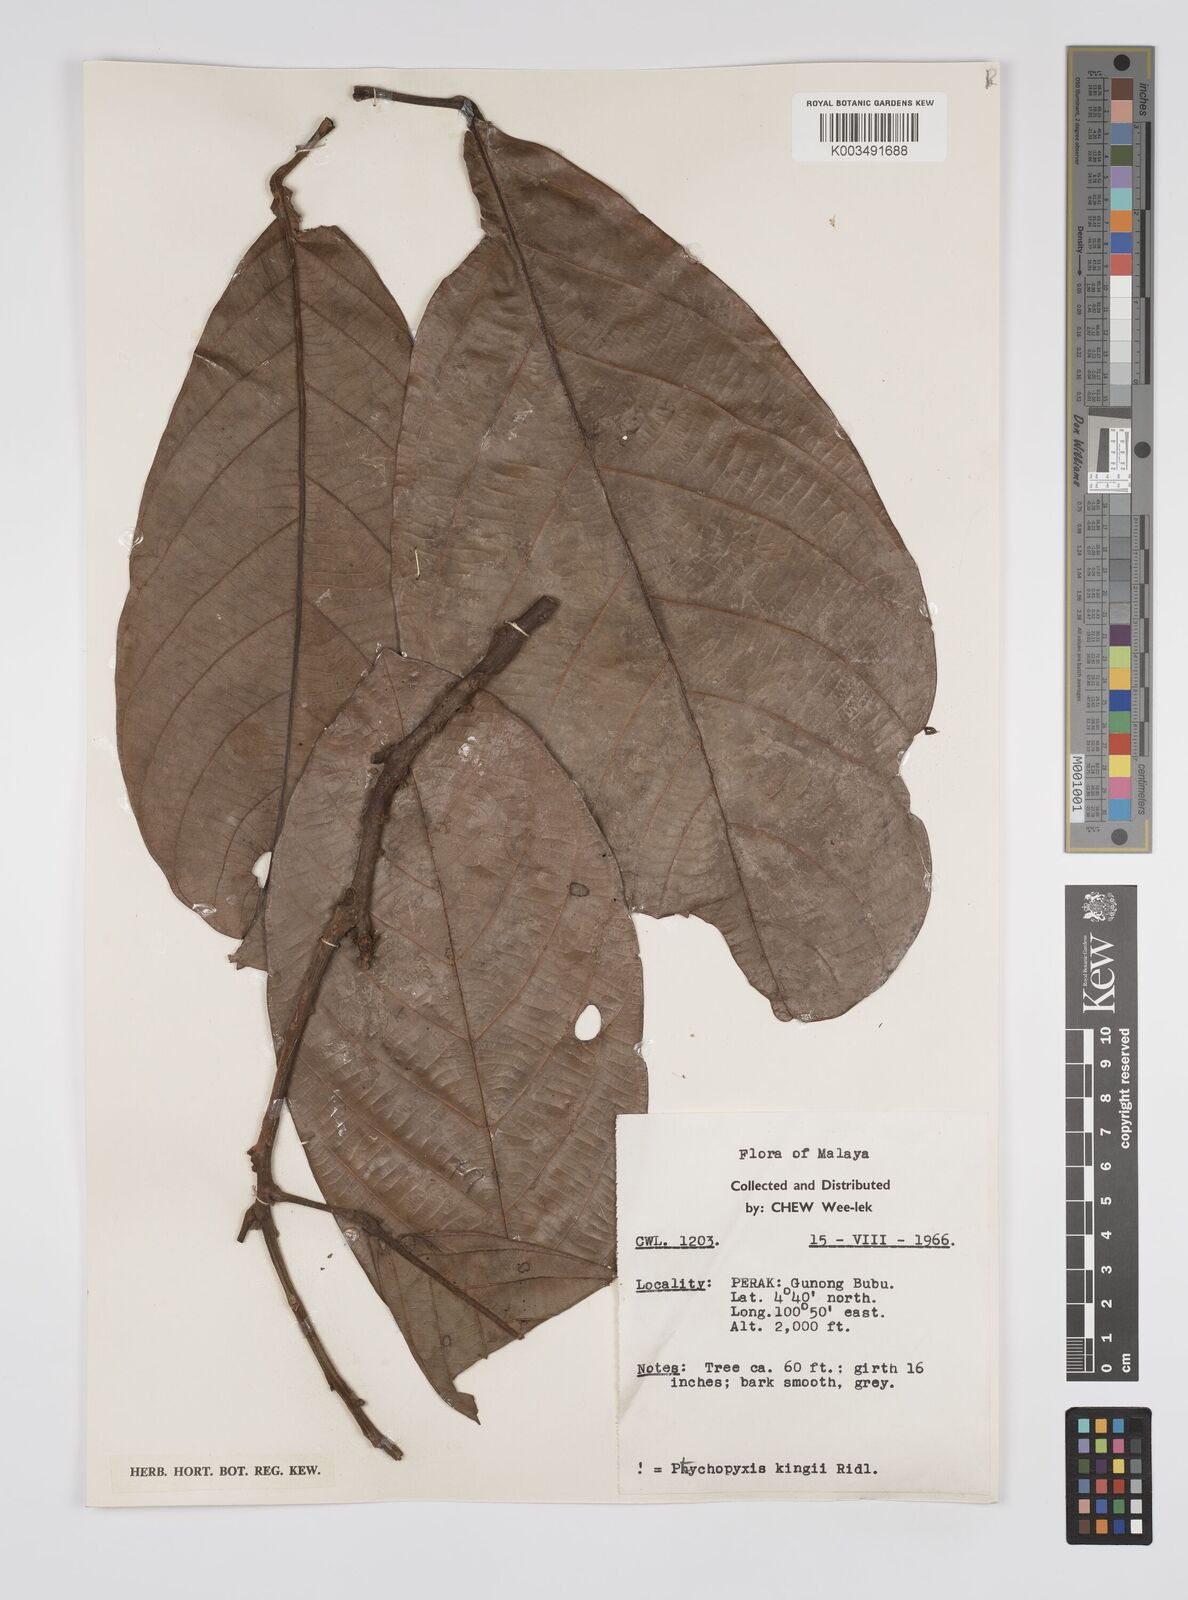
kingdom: Plantae
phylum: Tracheophyta
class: Magnoliopsida
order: Malpighiales
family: Euphorbiaceae
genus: Ptychopyxis
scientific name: Ptychopyxis kingii
